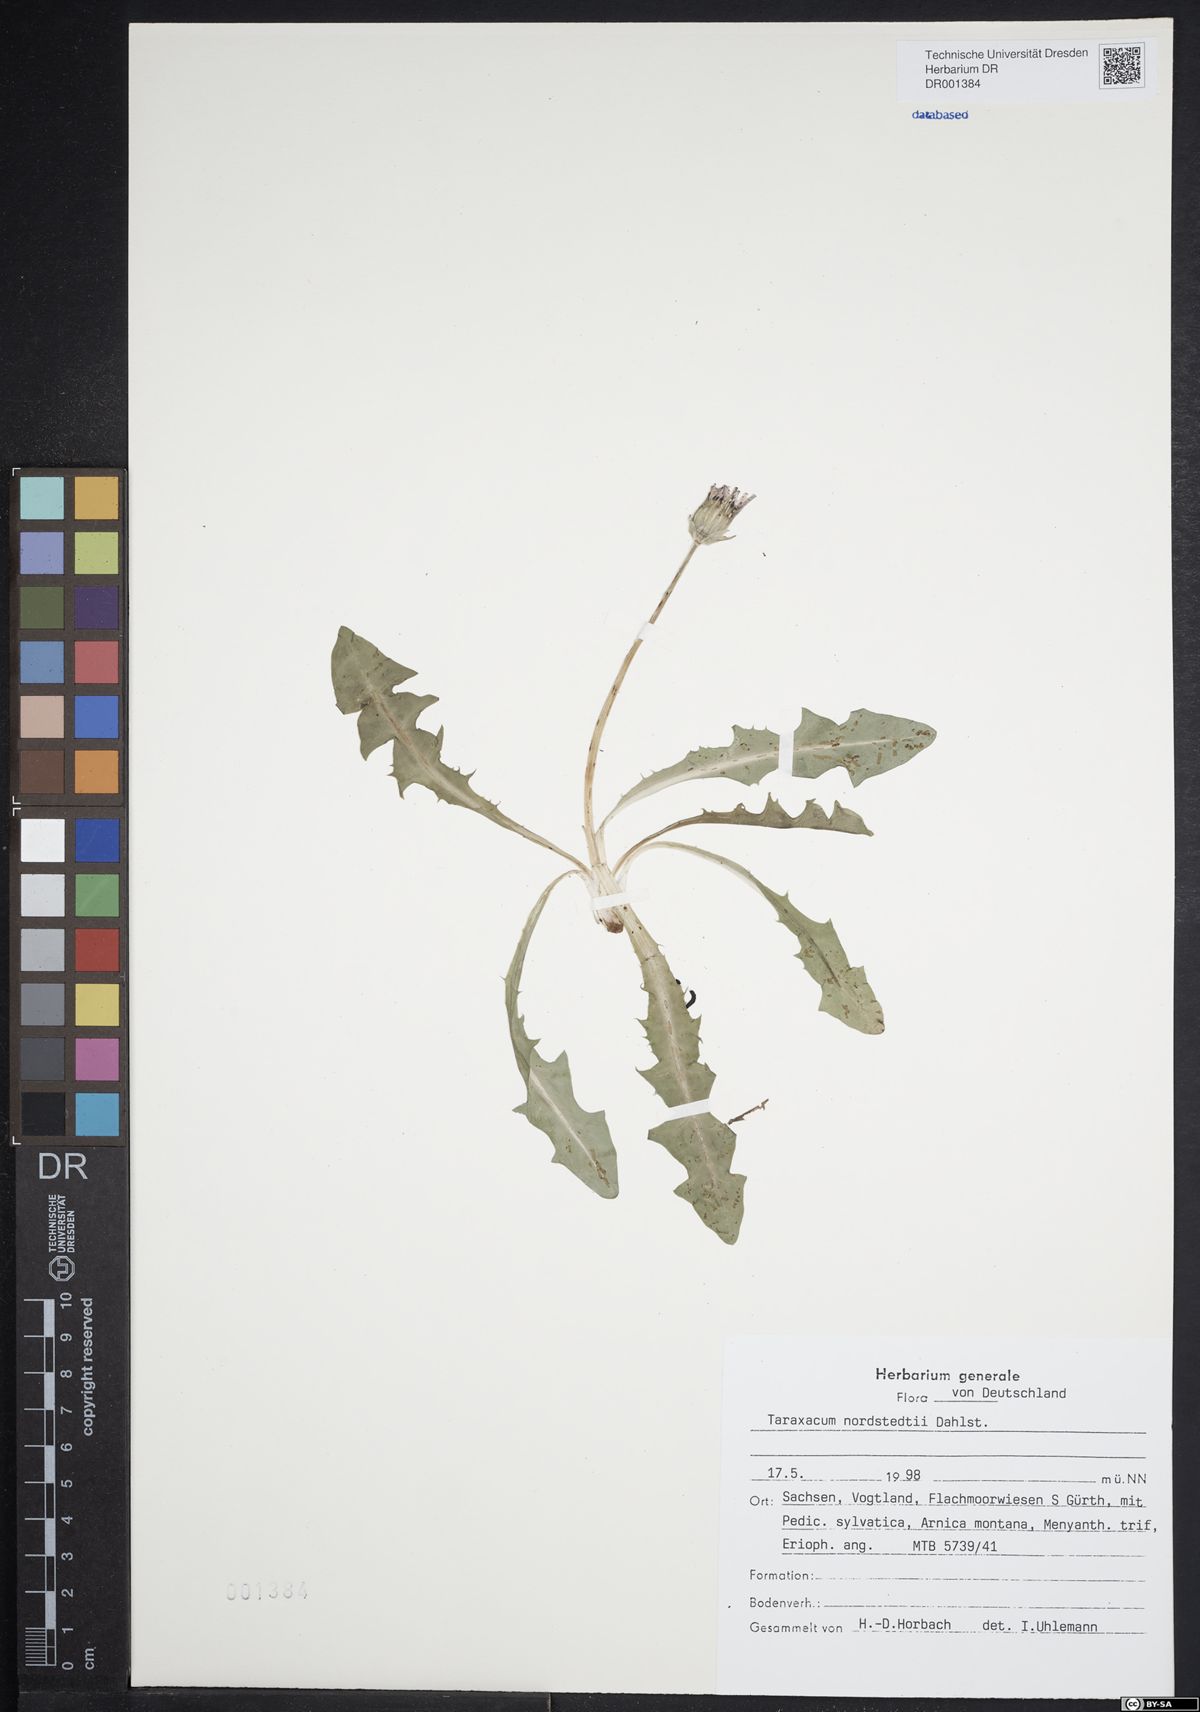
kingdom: Plantae
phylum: Tracheophyta
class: Magnoliopsida
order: Asterales
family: Asteraceae
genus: Taraxacum
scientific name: Taraxacum nordstedtii
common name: Nordstedt's dandelion
